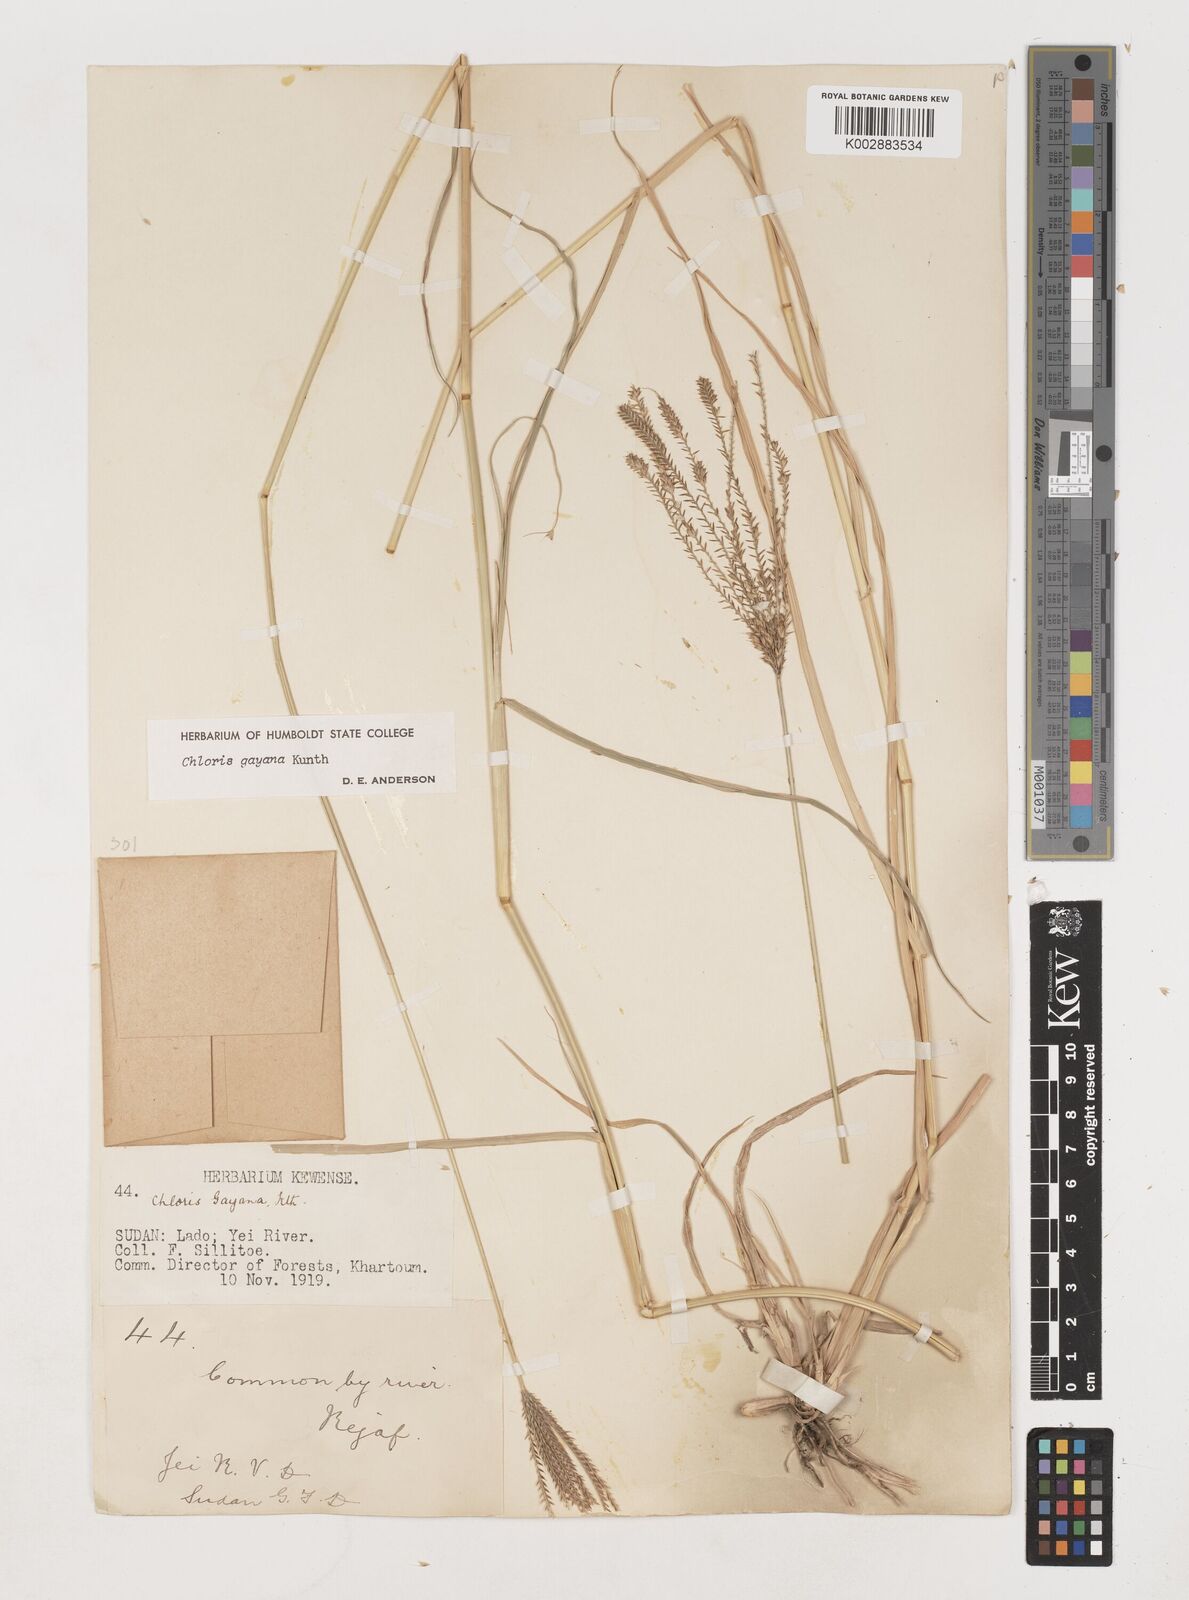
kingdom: Plantae
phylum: Tracheophyta
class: Liliopsida
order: Poales
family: Poaceae
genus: Chloris
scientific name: Chloris gayana
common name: Rhodes grass
